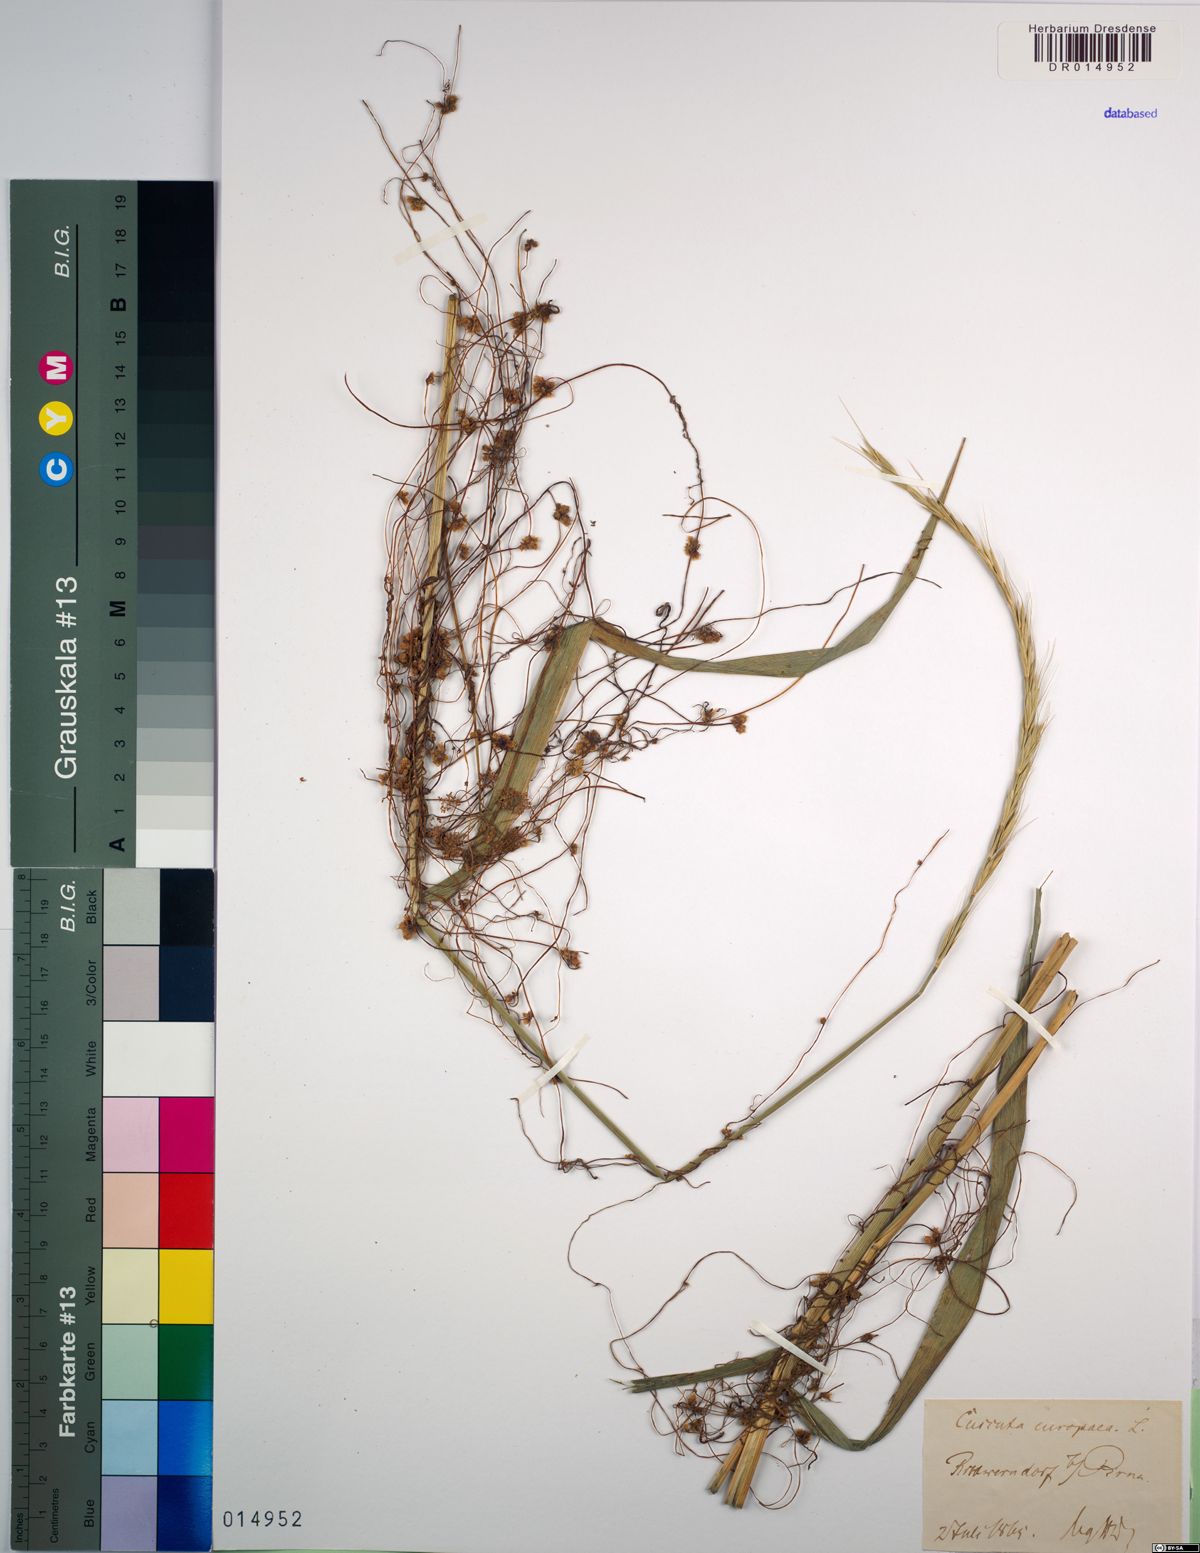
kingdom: Plantae
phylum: Tracheophyta
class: Magnoliopsida
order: Solanales
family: Convolvulaceae
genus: Cuscuta
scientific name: Cuscuta europaea
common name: Greater dodder
